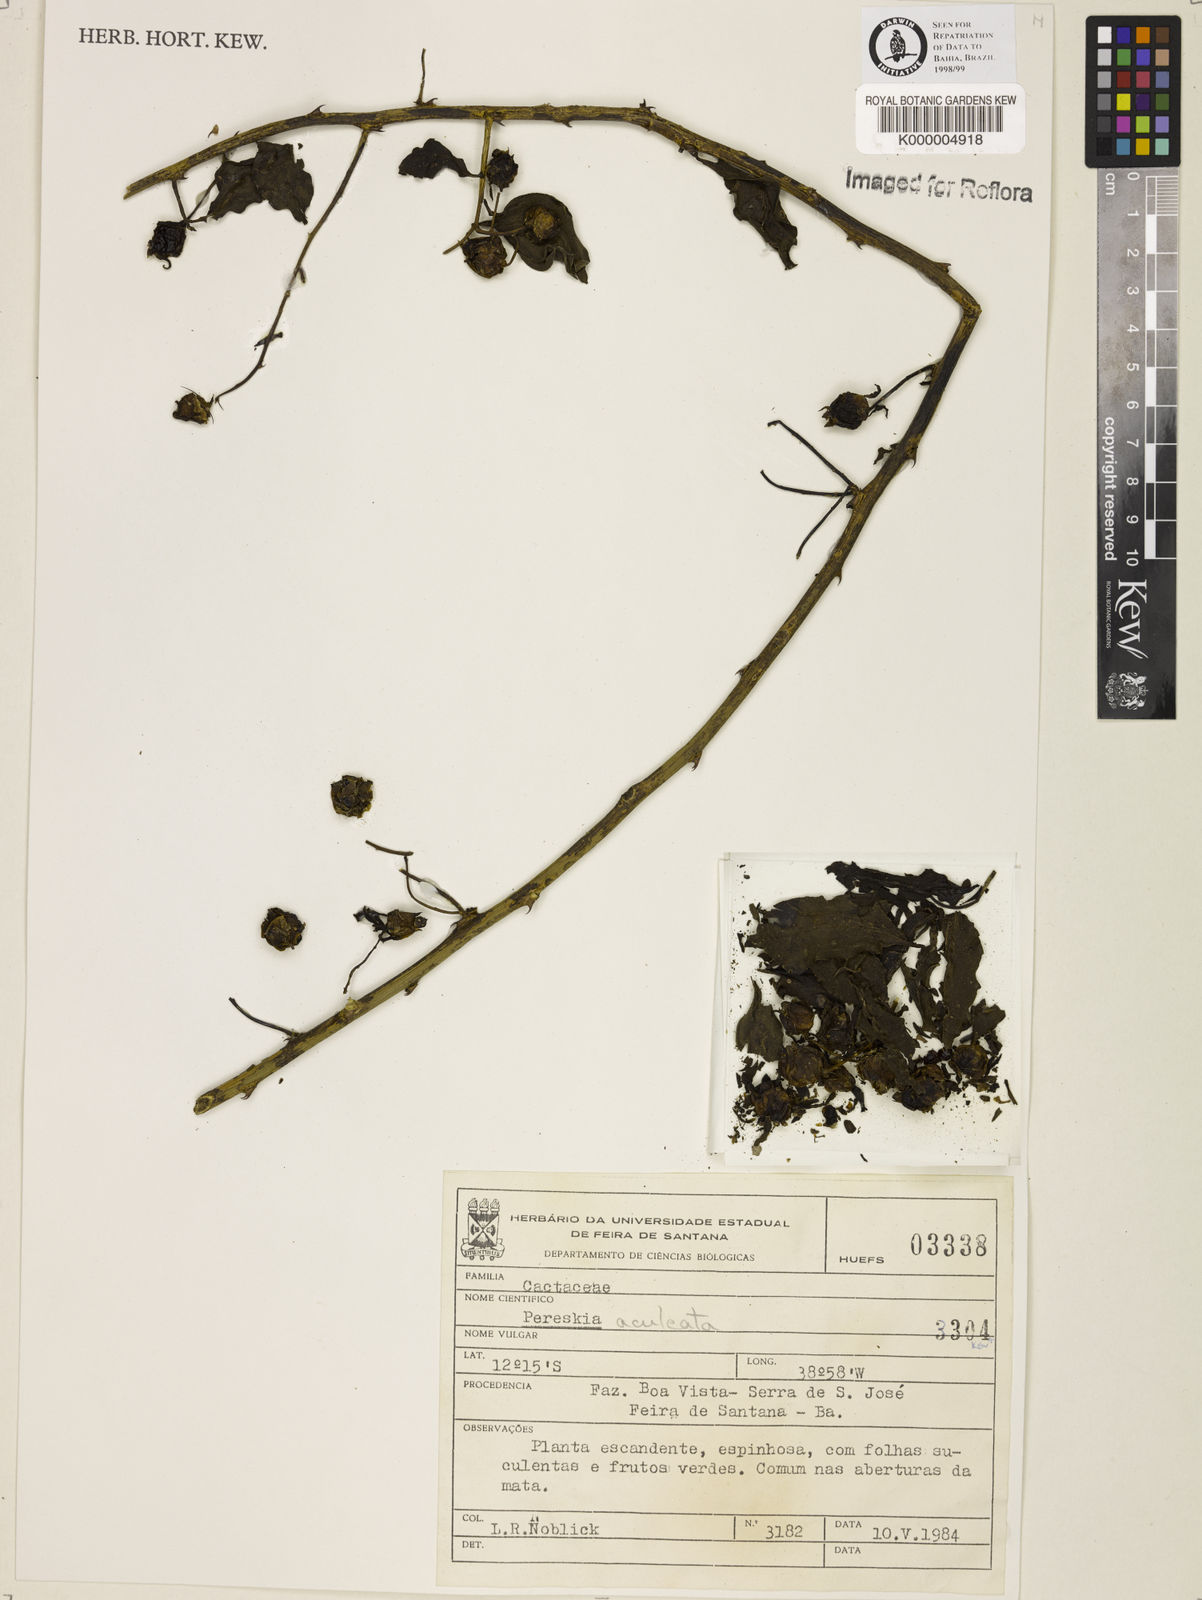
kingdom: Plantae
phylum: Tracheophyta
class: Magnoliopsida
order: Caryophyllales
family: Cactaceae
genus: Pereskia
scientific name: Pereskia aculeata
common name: Barbados gooseberry
